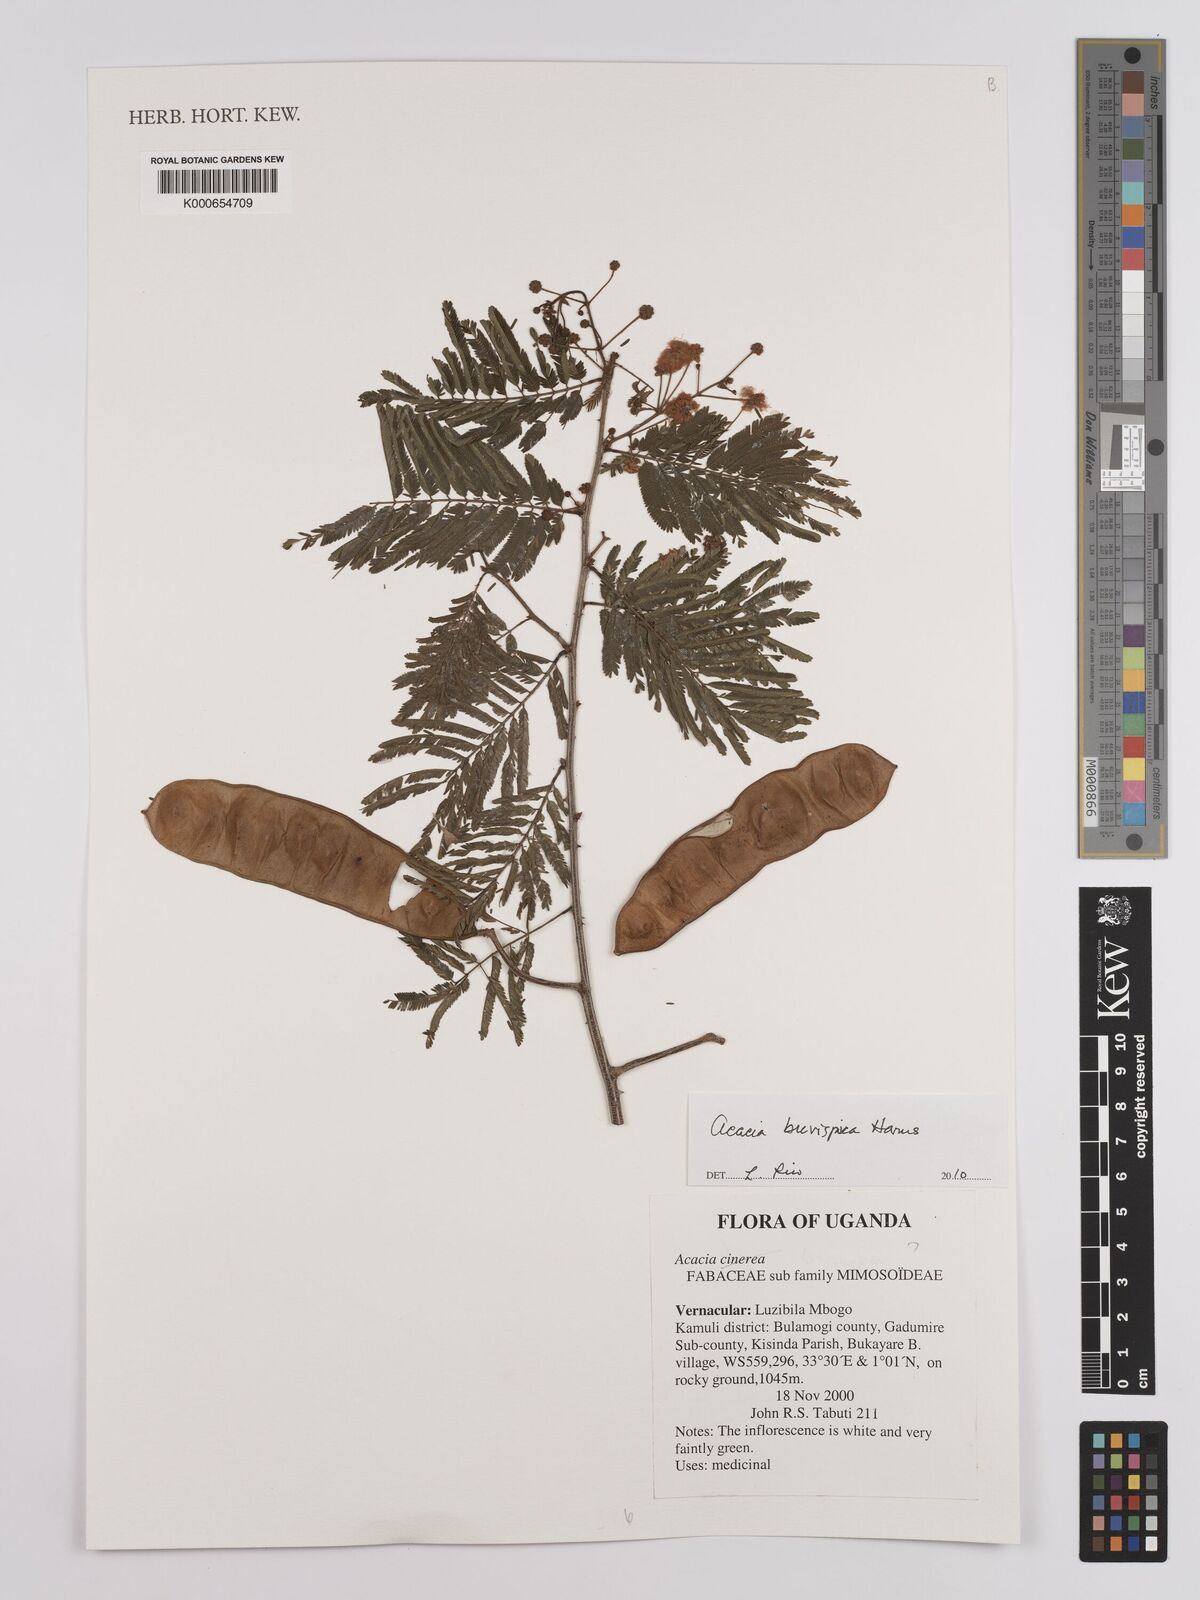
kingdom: Plantae
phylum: Tracheophyta
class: Magnoliopsida
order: Fabales
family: Fabaceae
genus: Senegalia
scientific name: Senegalia brevispica
